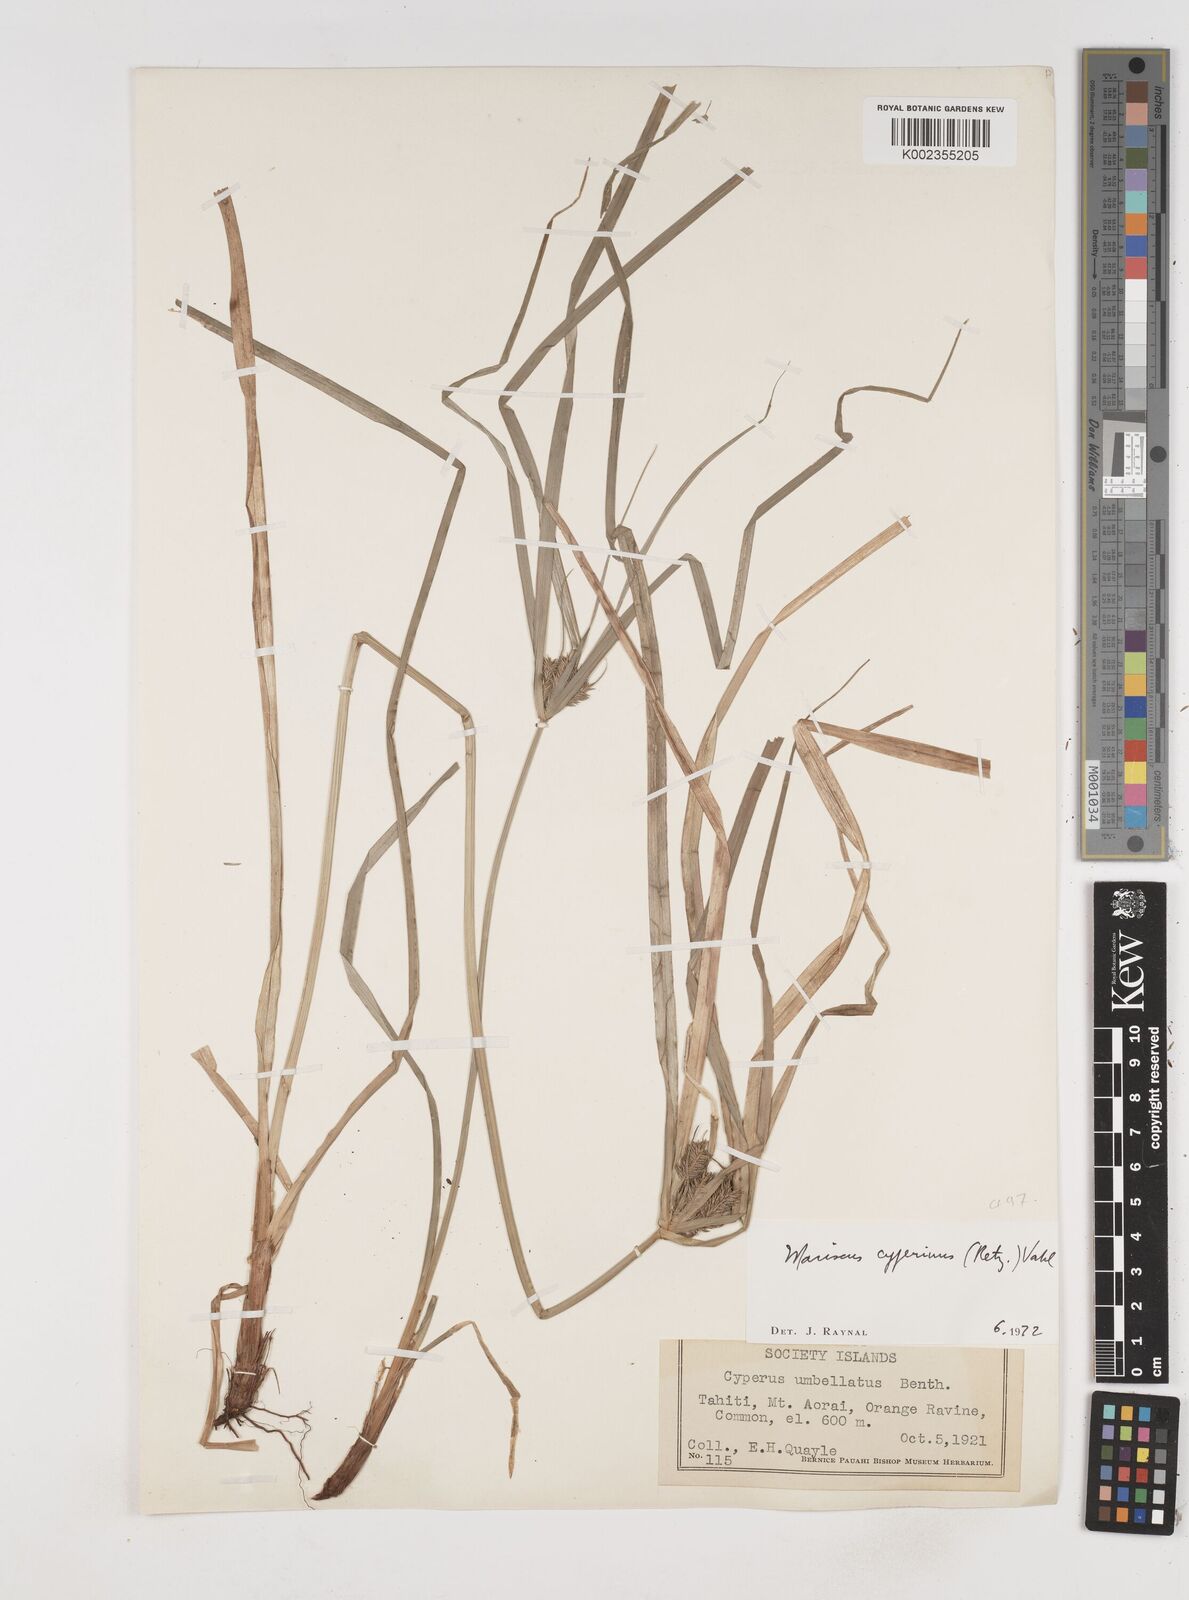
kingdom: Plantae
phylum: Tracheophyta
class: Liliopsida
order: Poales
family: Cyperaceae
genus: Cyperus
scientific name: Cyperus cyperinus
